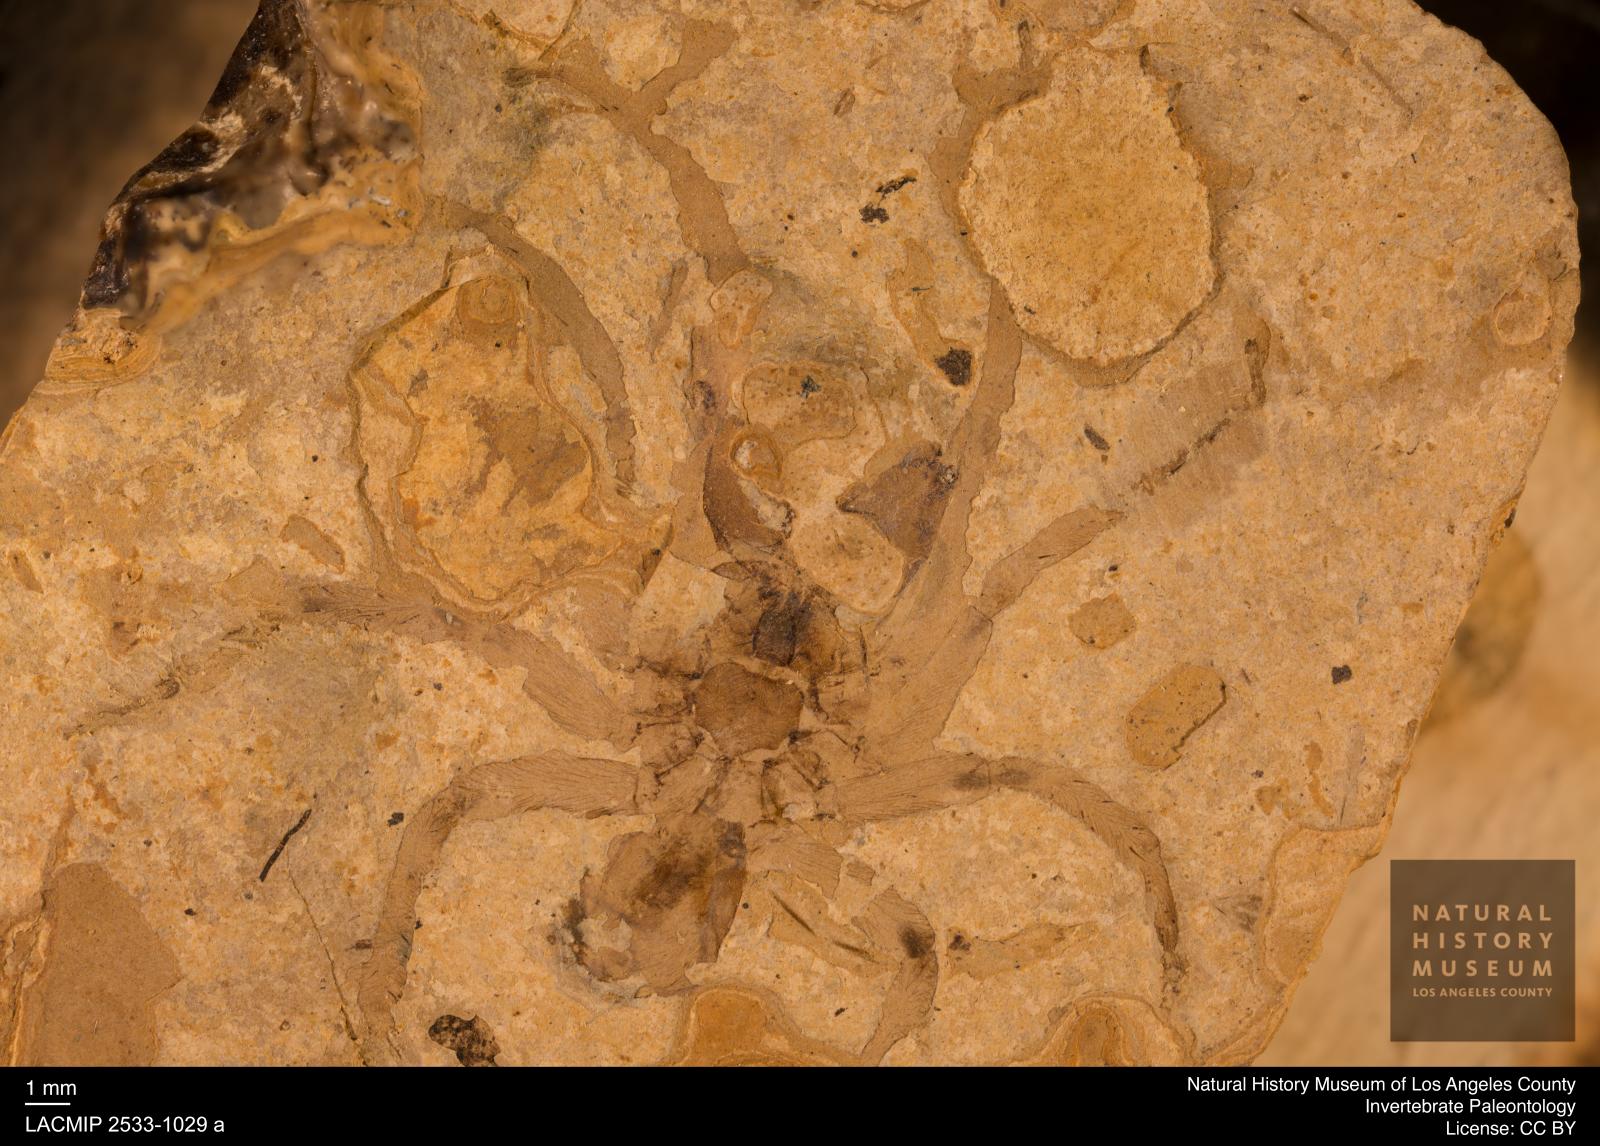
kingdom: Animalia
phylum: Arthropoda
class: Arachnida
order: Araneae
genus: Elvina
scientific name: Elvina Argyroneta antiqua
